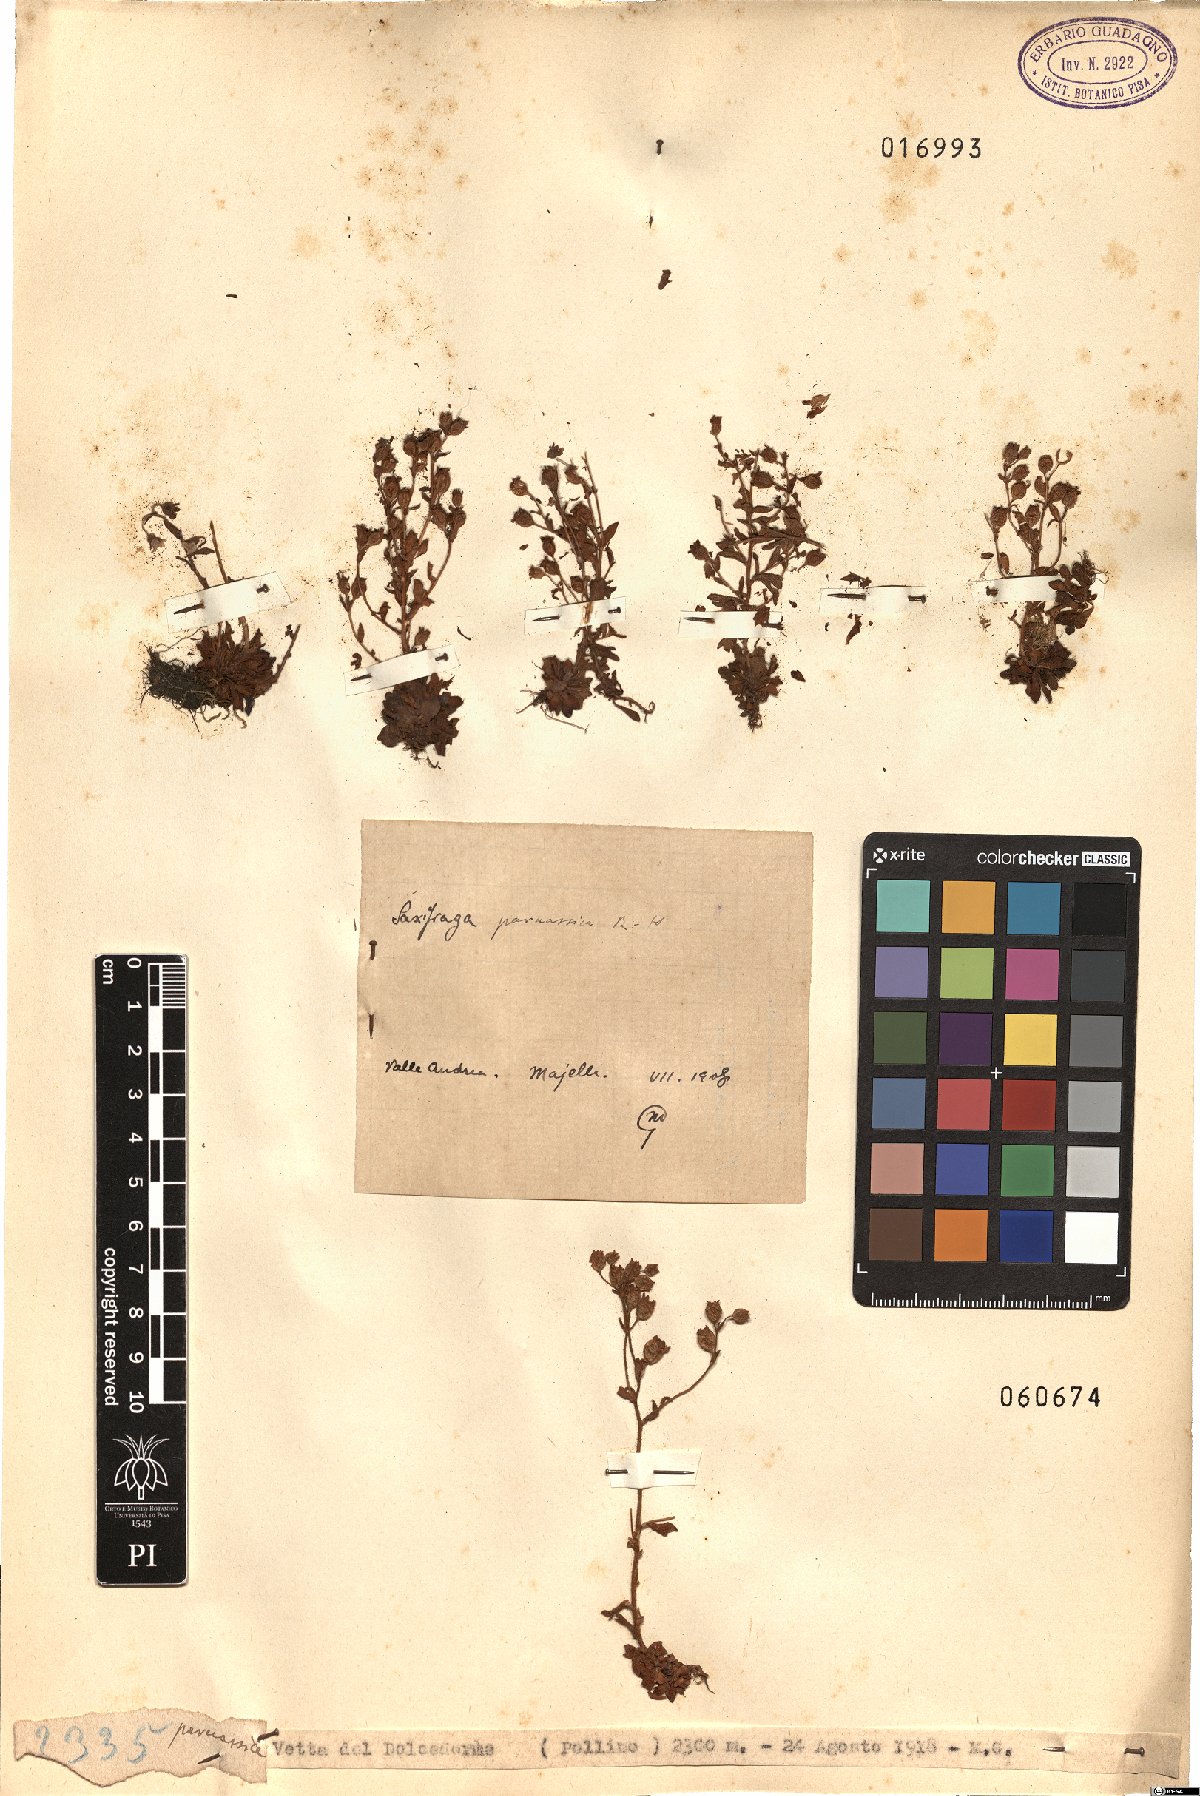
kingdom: Plantae
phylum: Tracheophyta
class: Magnoliopsida
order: Saxifragales
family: Saxifragaceae
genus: Saxifraga
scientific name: Saxifraga adscendens
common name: Ascending saxifrage
